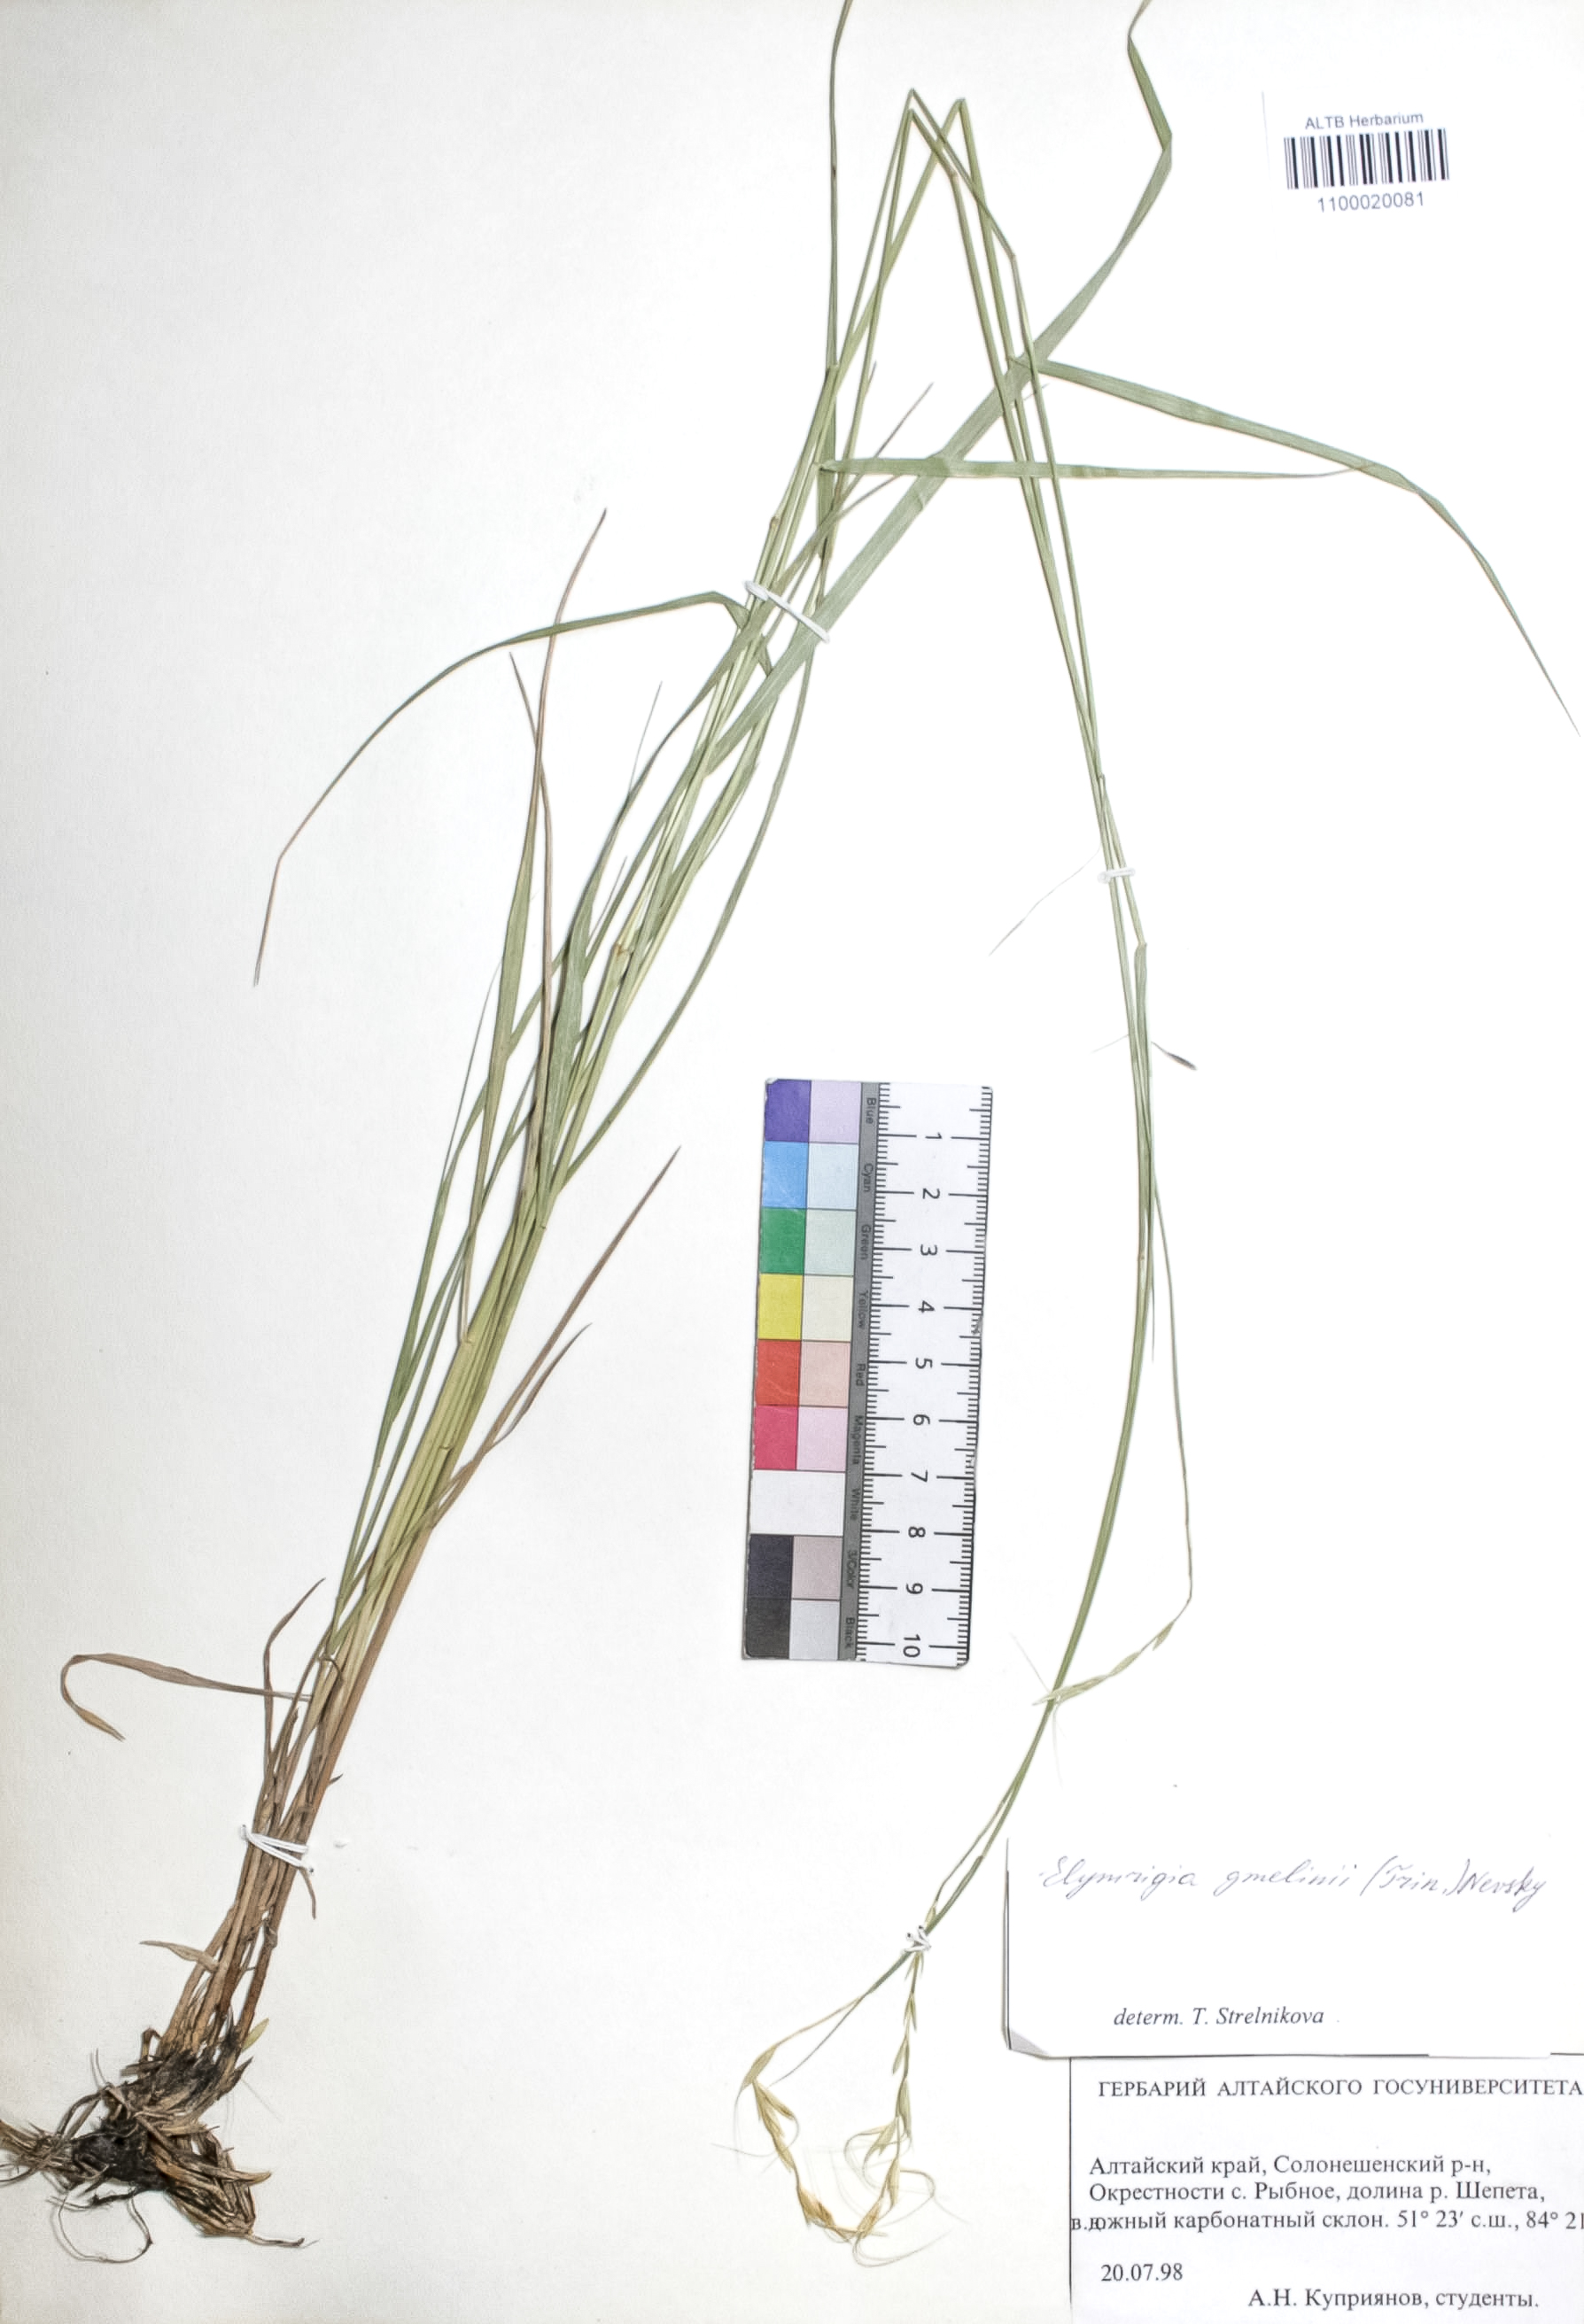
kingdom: Plantae
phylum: Tracheophyta
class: Liliopsida
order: Poales
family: Poaceae
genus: Pseudoroegneria
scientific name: Pseudoroegneria reflexiaristata
